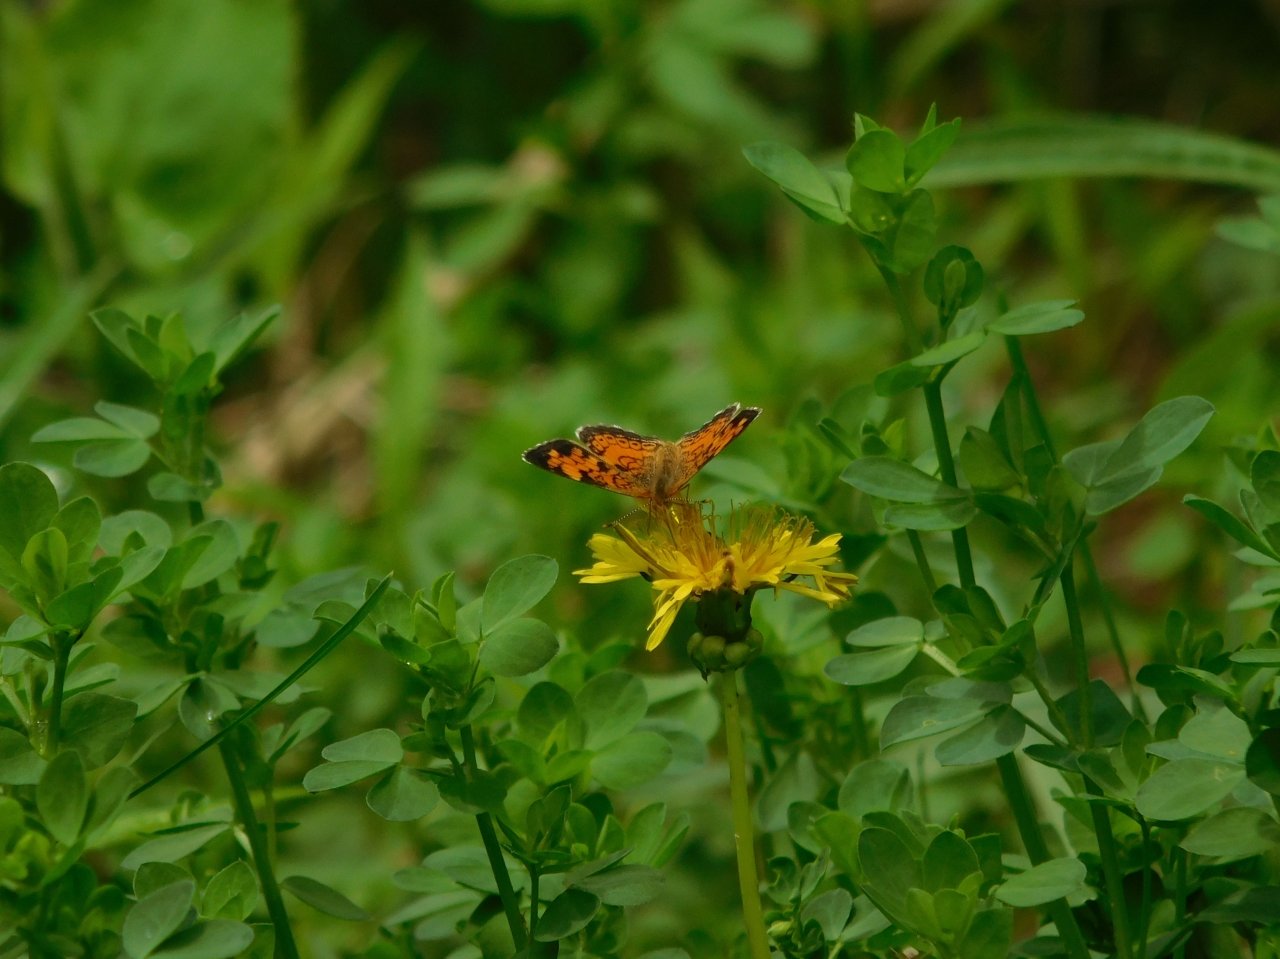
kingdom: Animalia
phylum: Arthropoda
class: Insecta
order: Lepidoptera
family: Nymphalidae
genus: Phyciodes
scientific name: Phyciodes tharos
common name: Northern Crescent
